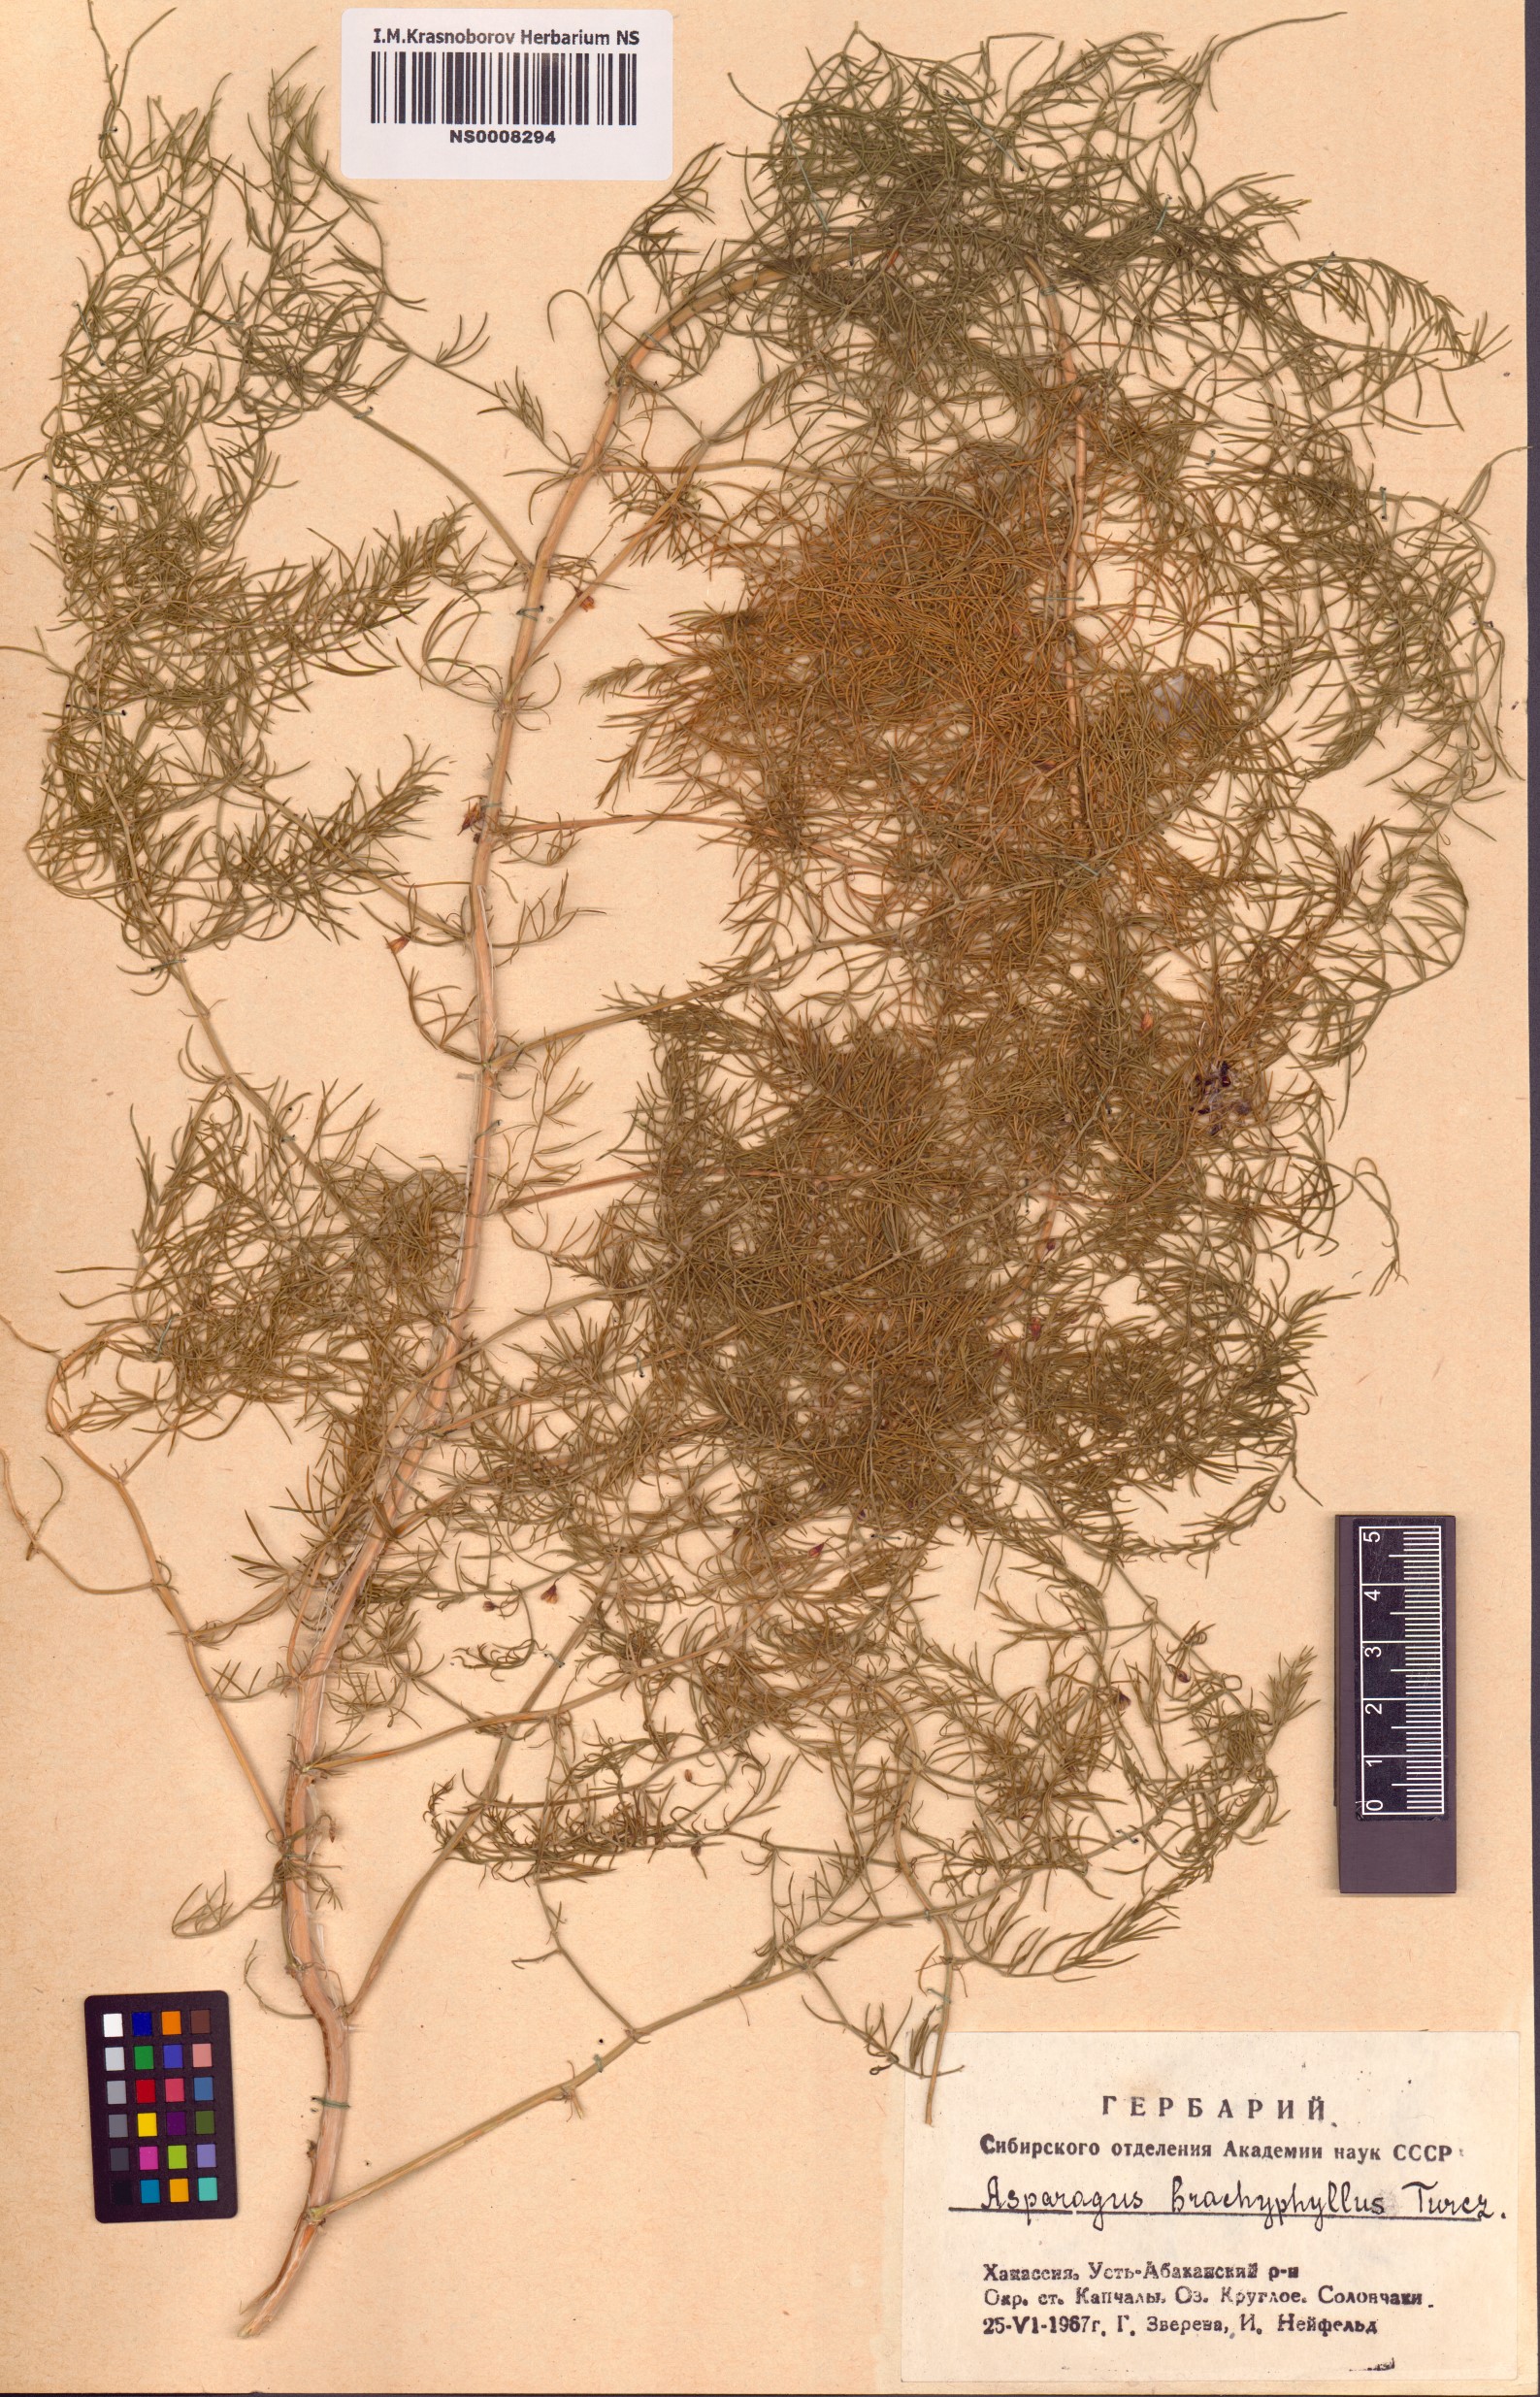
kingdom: Plantae
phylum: Tracheophyta
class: Liliopsida
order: Asparagales
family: Asparagaceae
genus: Asparagus
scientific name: Asparagus brachyphyllus
